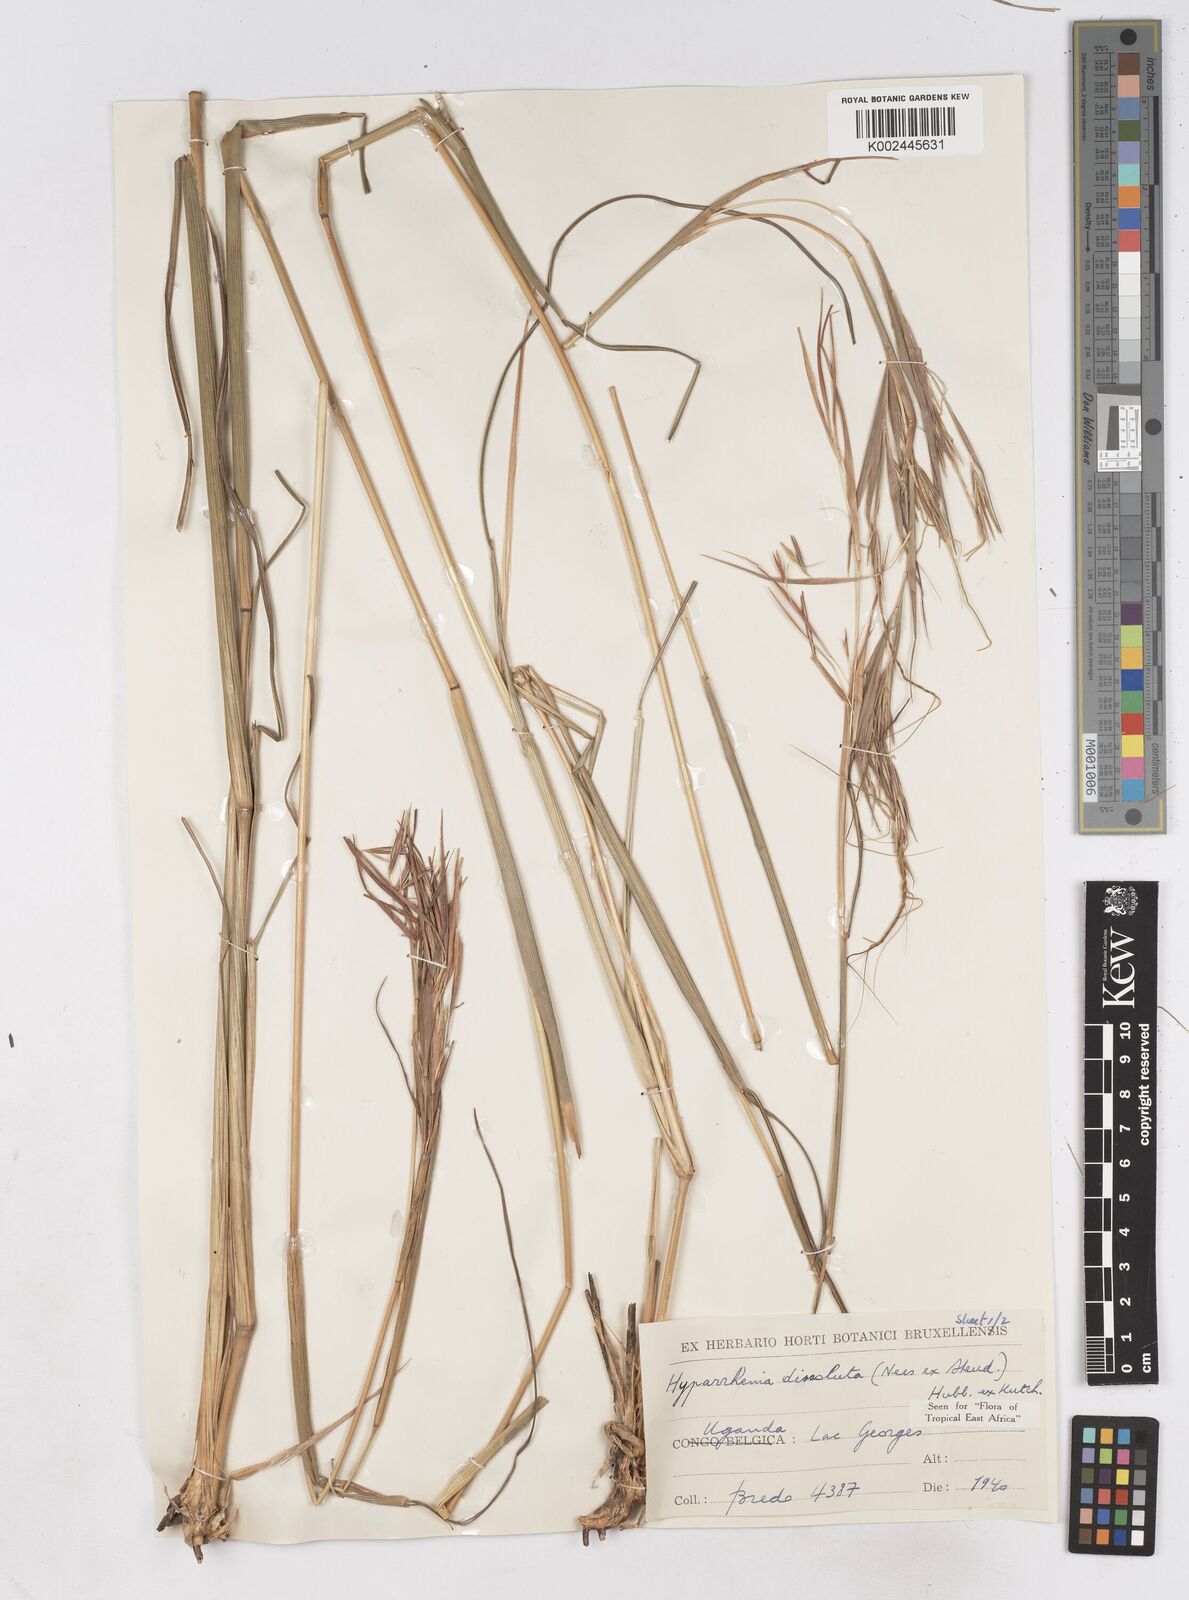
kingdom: Plantae
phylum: Tracheophyta
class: Liliopsida
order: Poales
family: Poaceae
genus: Hyperthelia
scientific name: Hyperthelia dissoluta
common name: Yellow thatching grass
